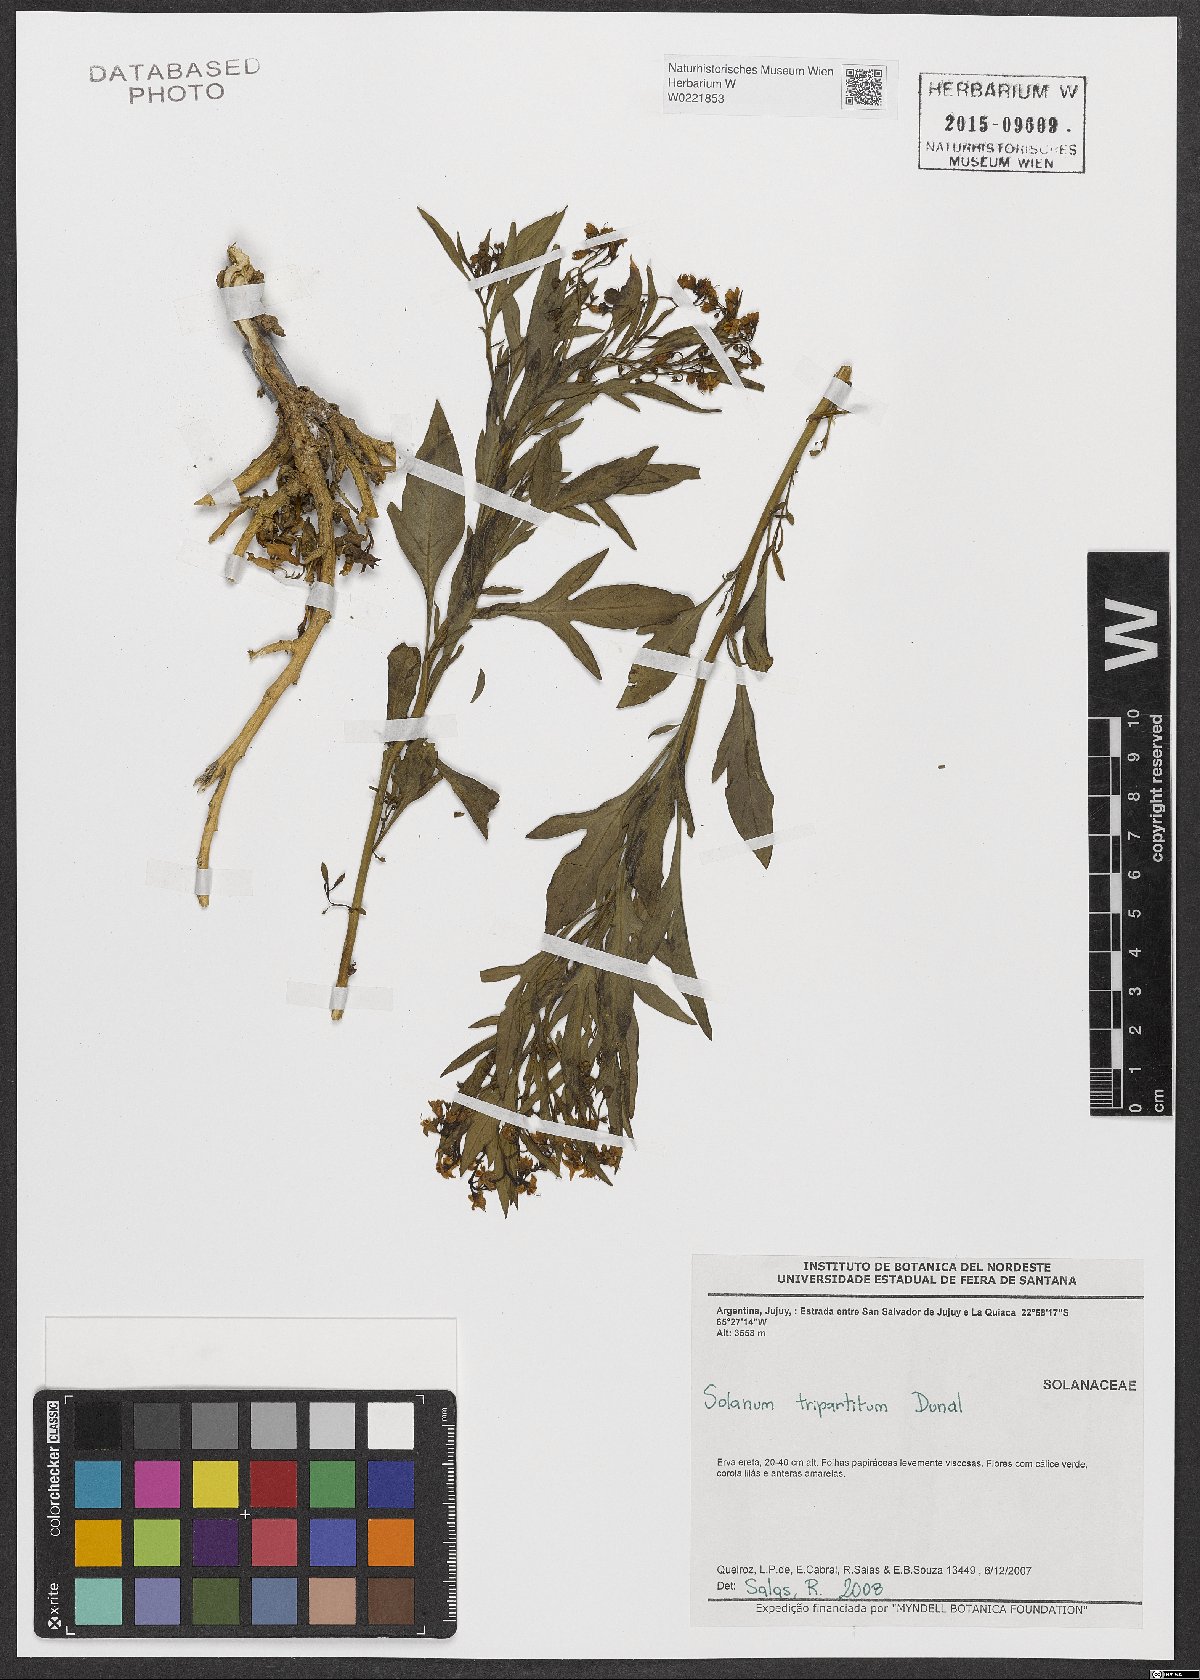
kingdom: Plantae
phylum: Tracheophyta
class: Magnoliopsida
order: Solanales
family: Solanaceae
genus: Solanum
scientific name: Solanum tripartitum
